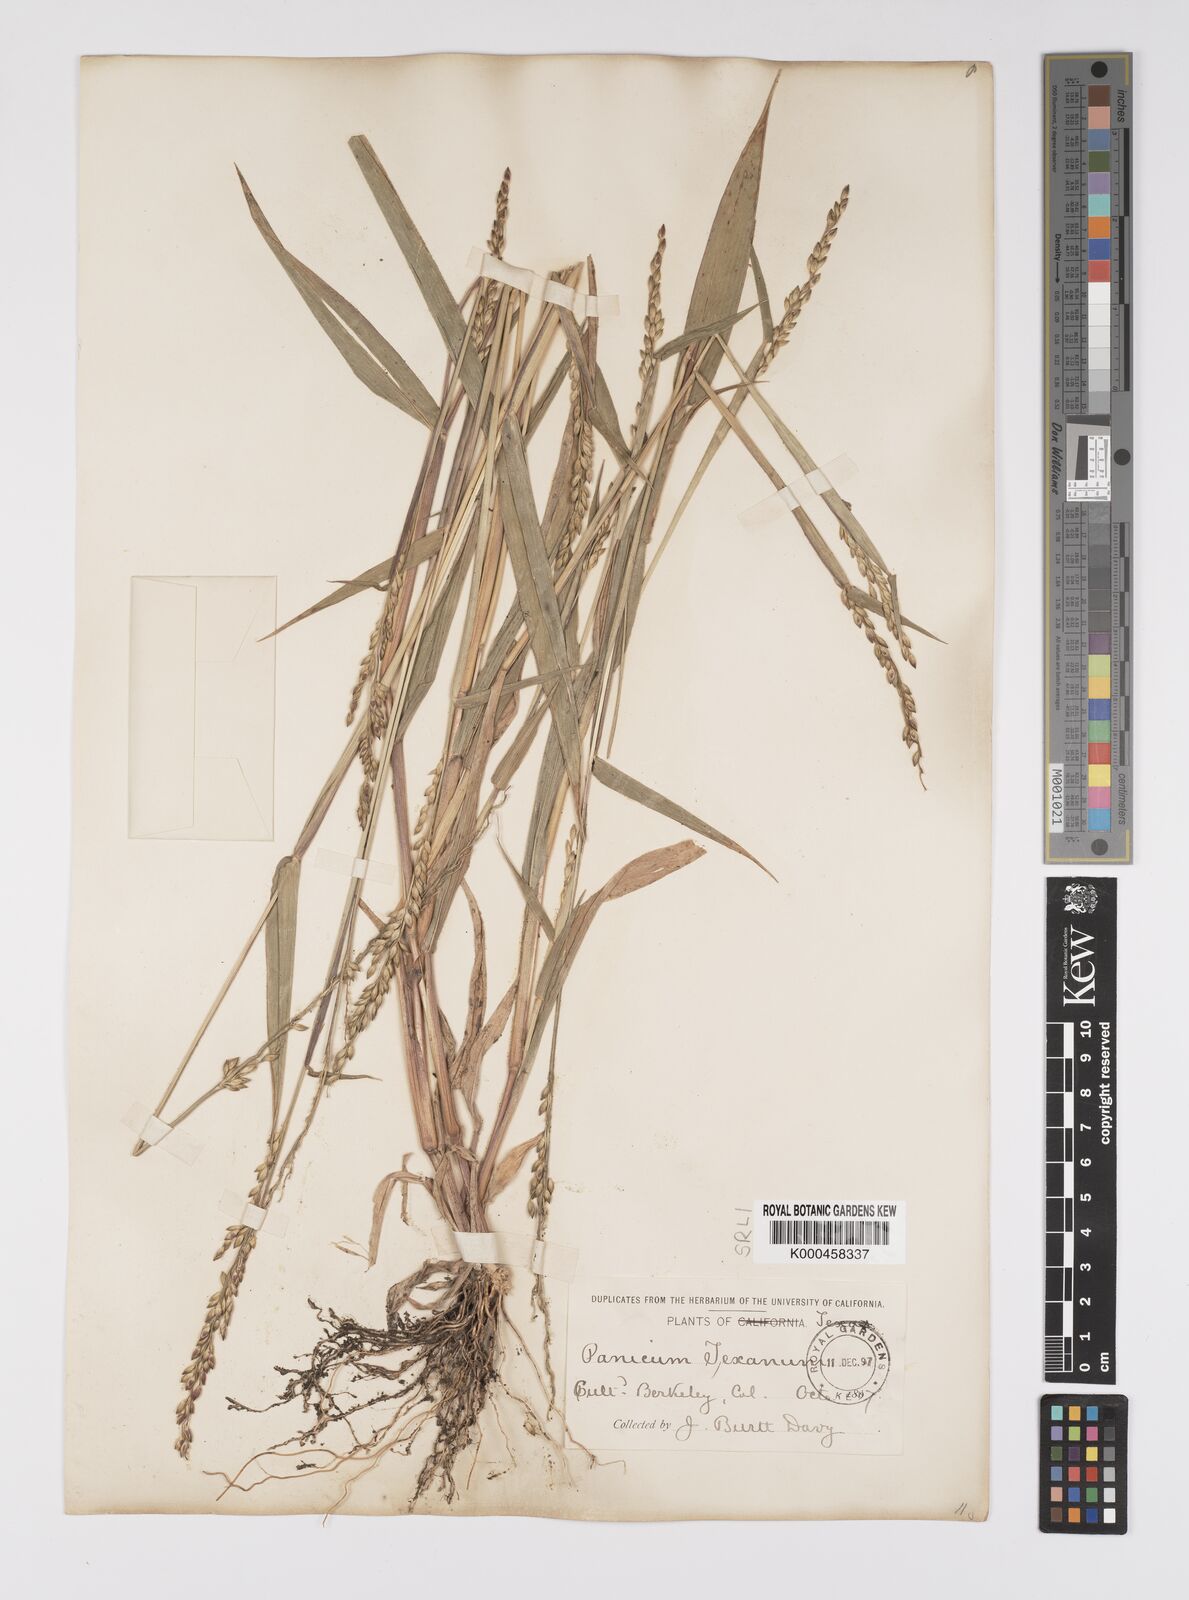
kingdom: Plantae
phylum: Tracheophyta
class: Liliopsida
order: Poales
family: Poaceae
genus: Urochloa
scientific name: Urochloa texana
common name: Texas millet
